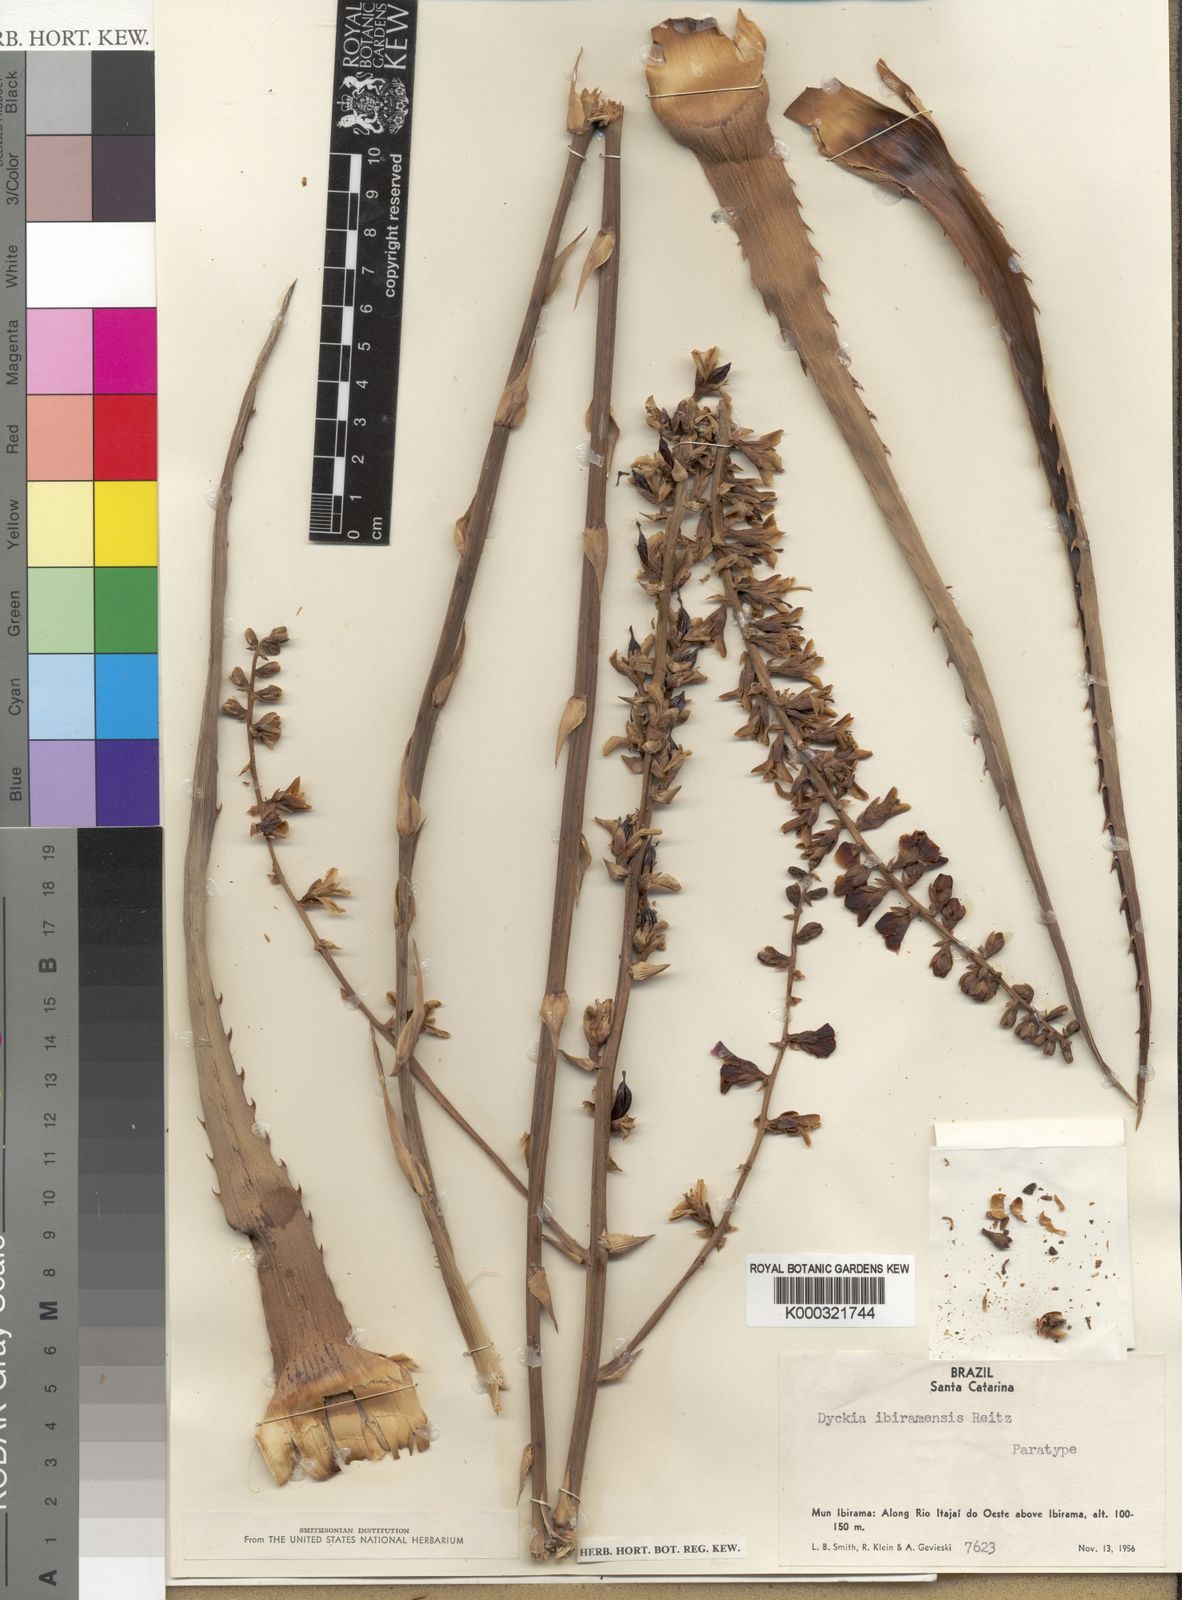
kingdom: Plantae
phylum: Tracheophyta
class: Liliopsida
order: Poales
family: Bromeliaceae
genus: Dyckia
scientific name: Dyckia ibiramensis
